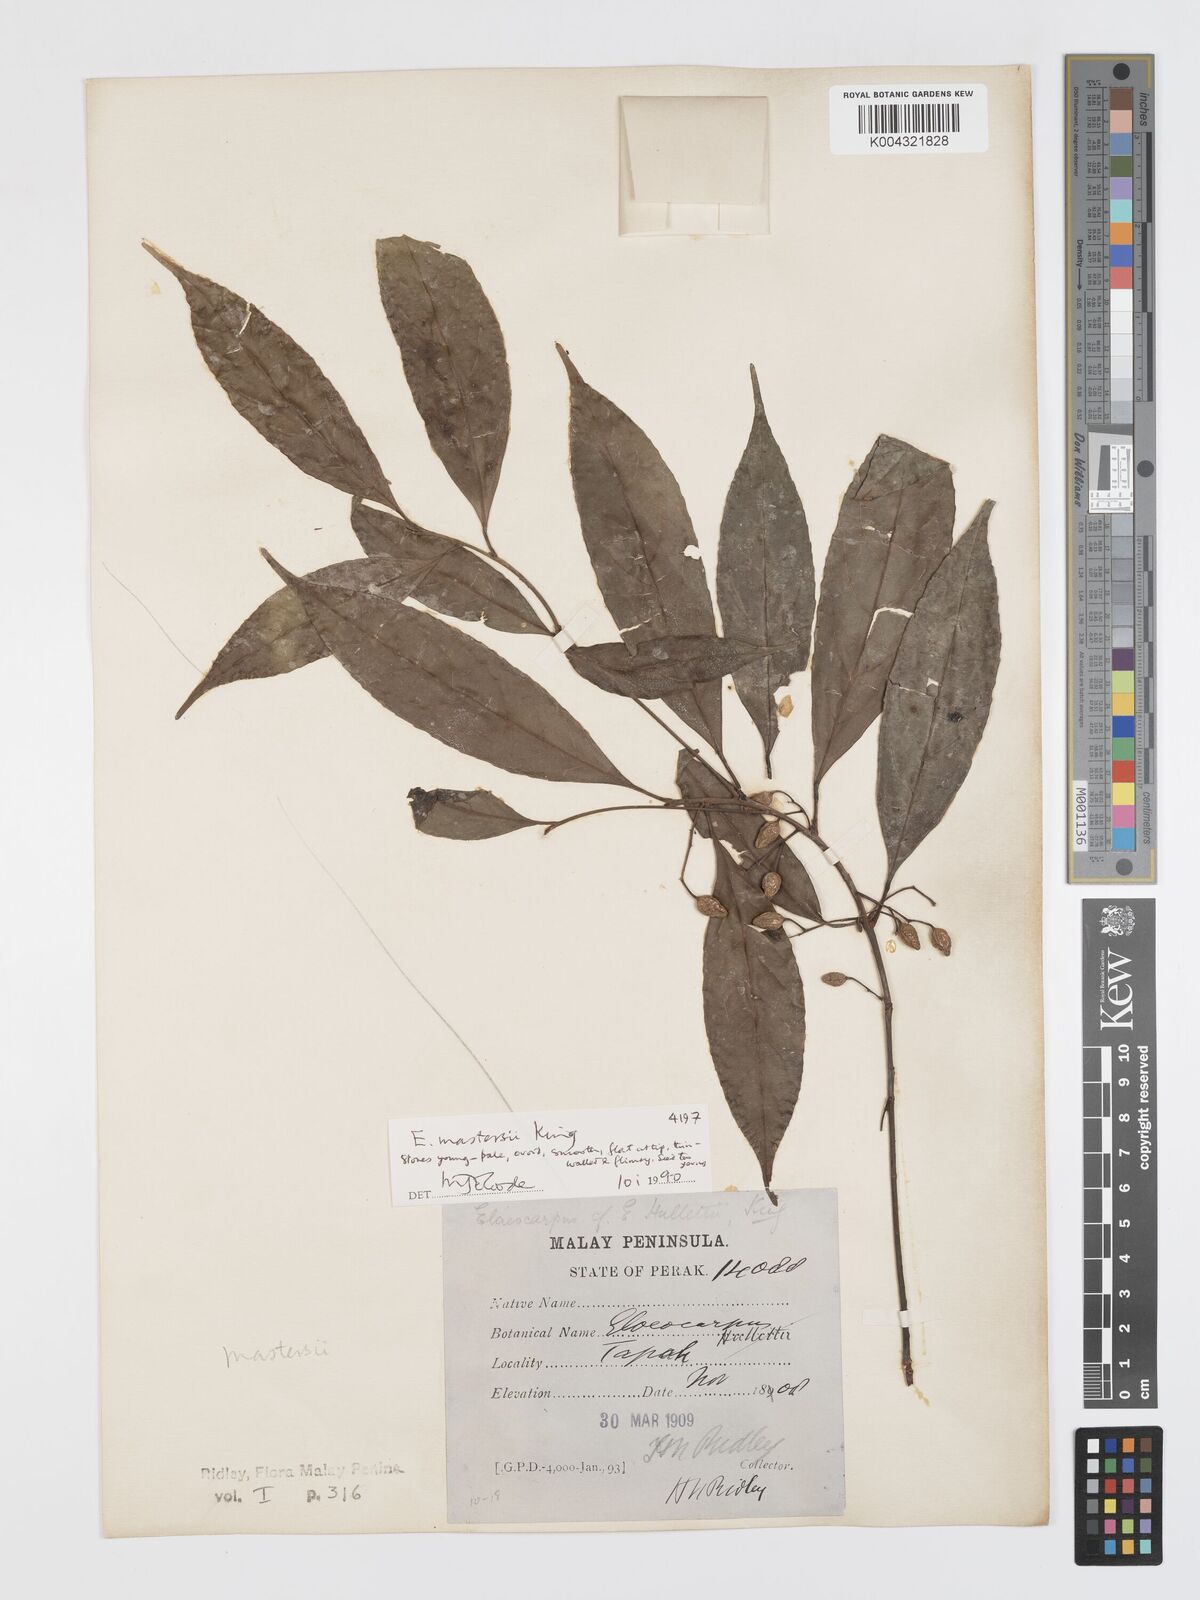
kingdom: Plantae
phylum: Tracheophyta
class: Magnoliopsida
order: Oxalidales
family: Elaeocarpaceae
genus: Elaeocarpus
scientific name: Elaeocarpus mastersii
